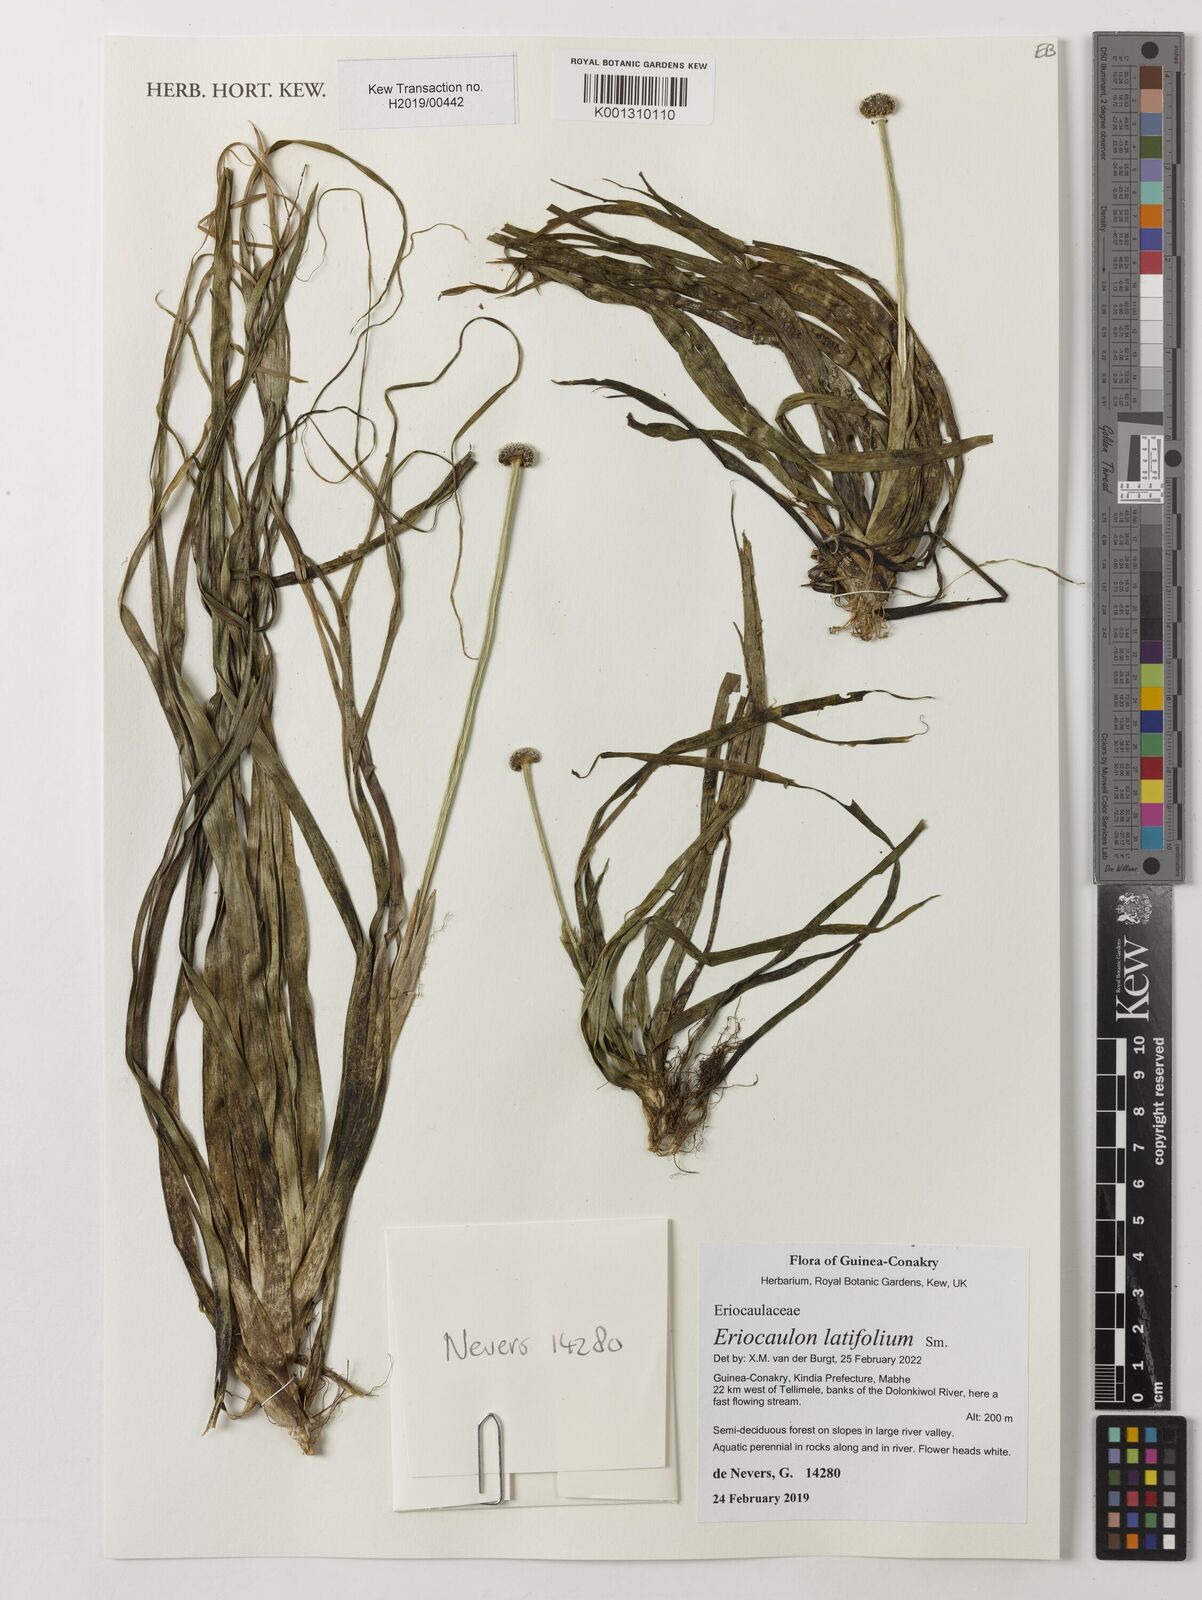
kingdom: Plantae
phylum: Tracheophyta
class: Liliopsida
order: Poales
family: Eriocaulaceae
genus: Eriocaulon
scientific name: Eriocaulon latifolium
